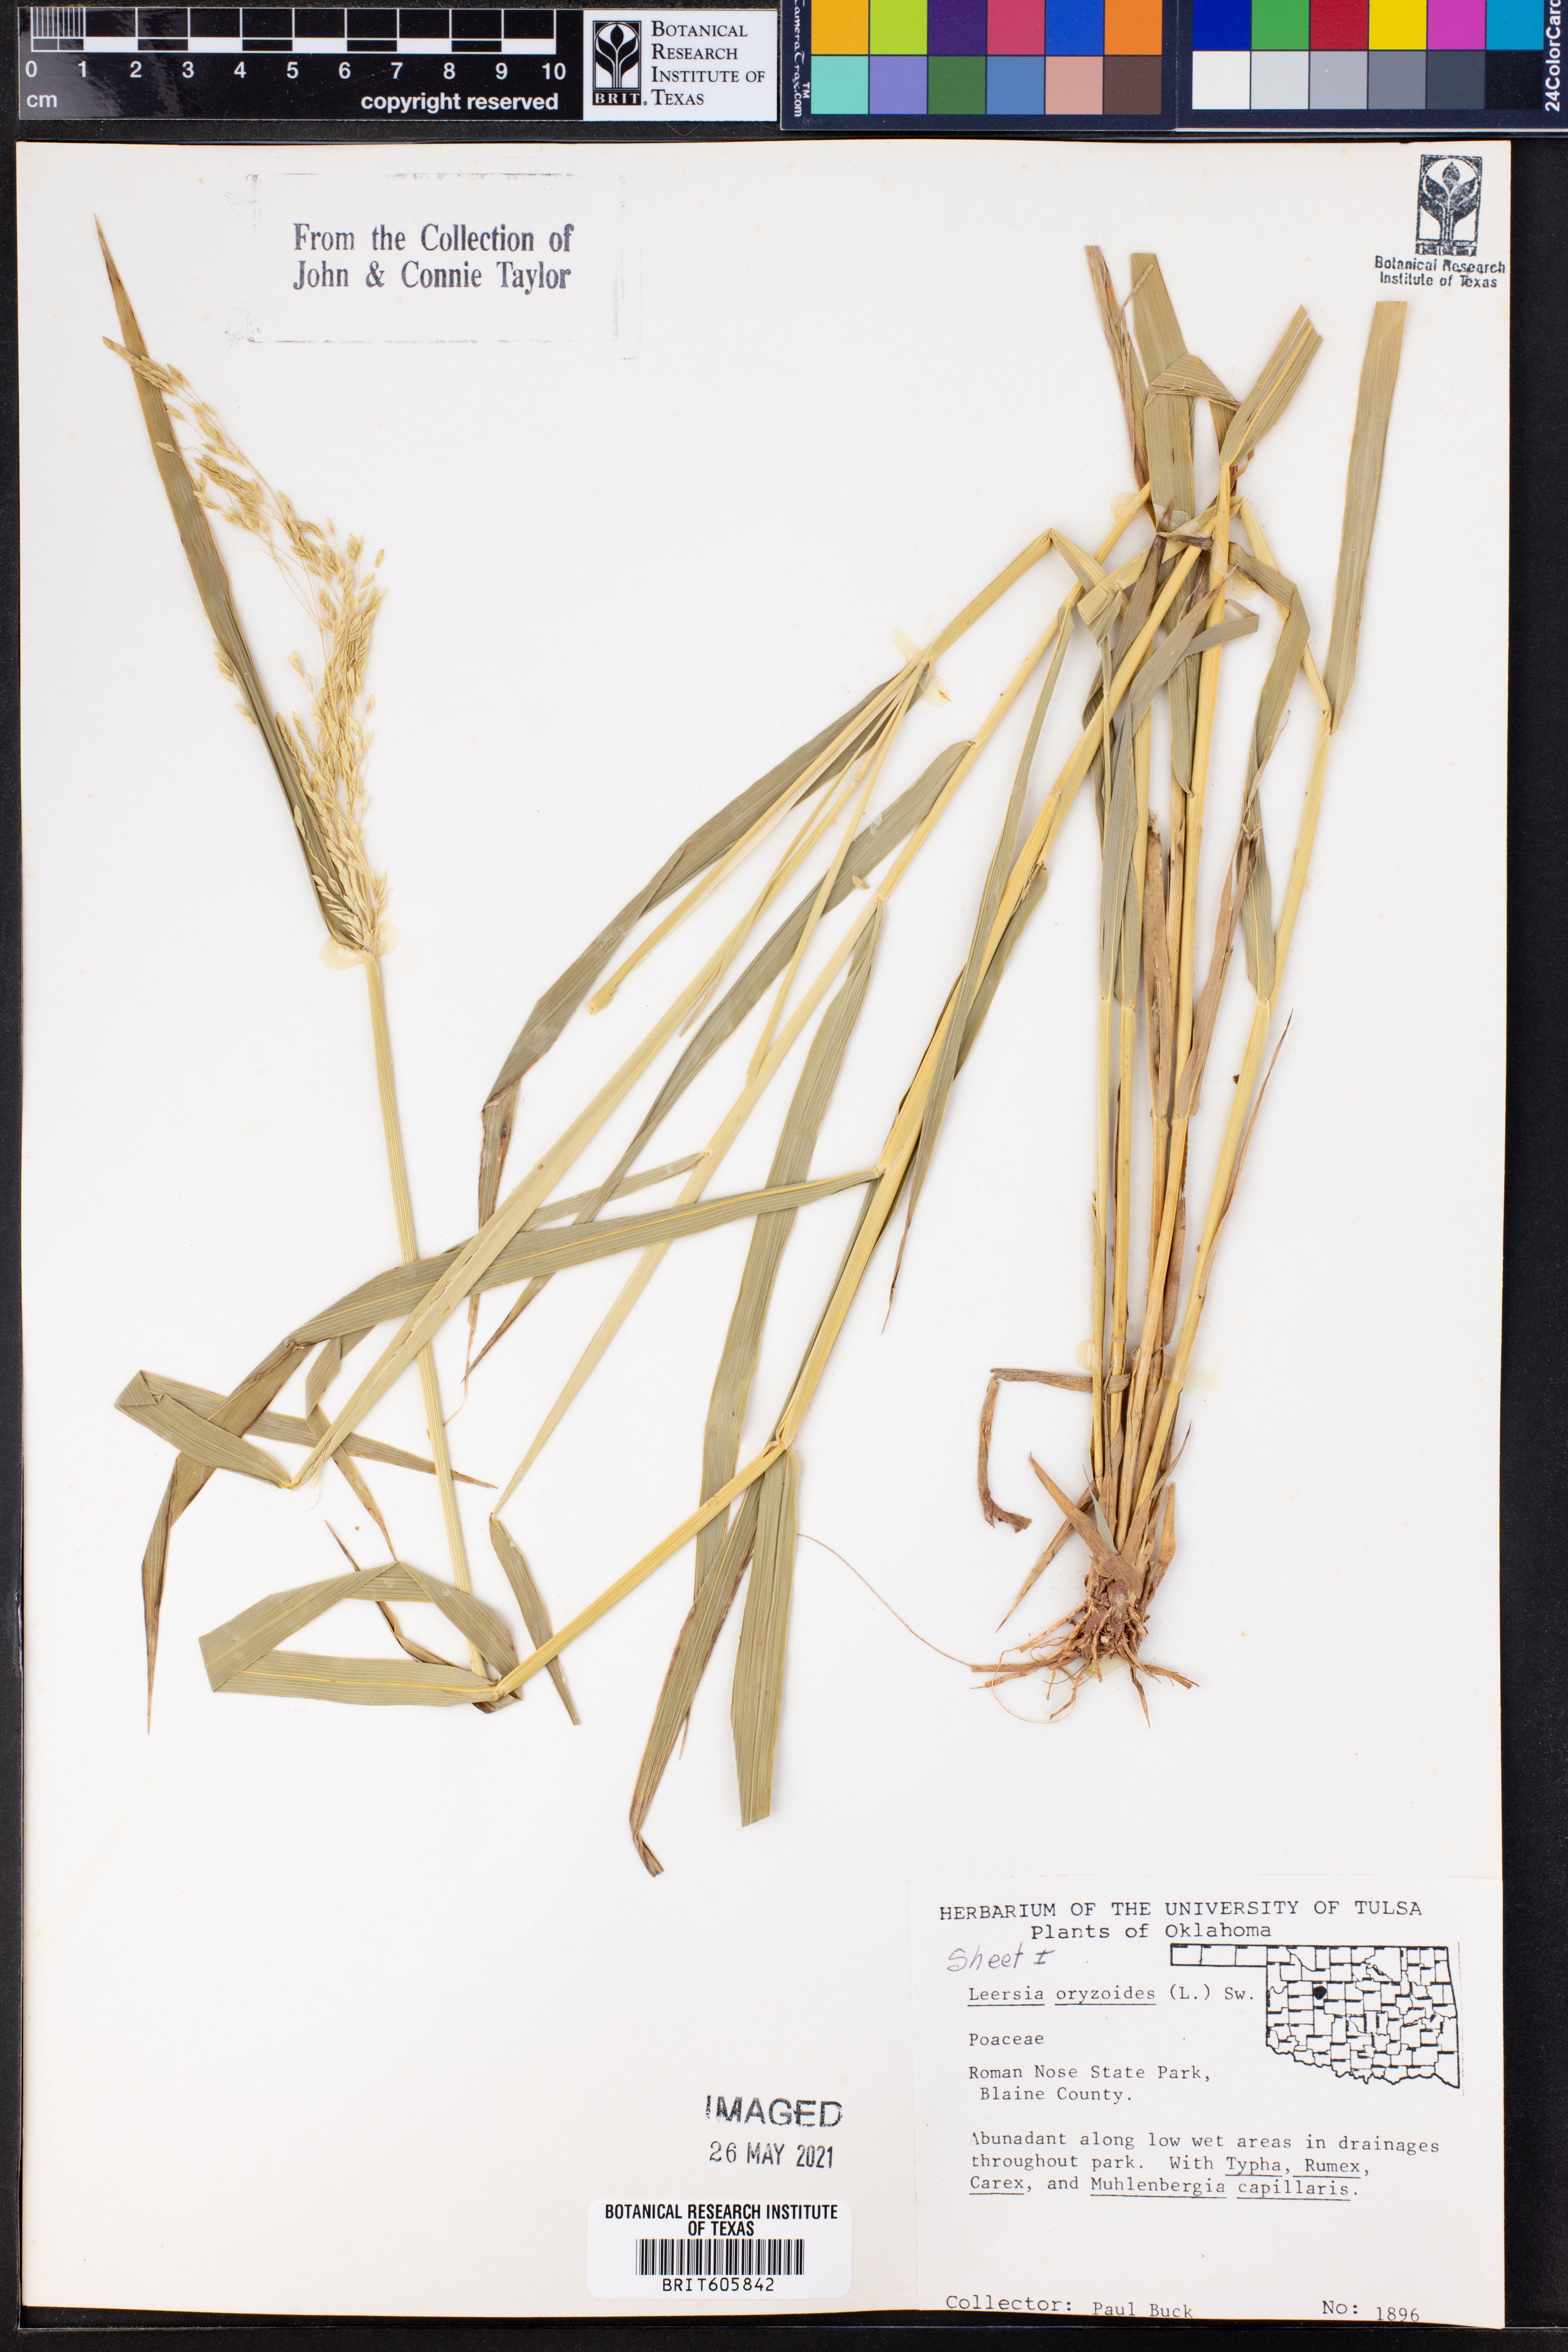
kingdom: Plantae
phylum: Tracheophyta
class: Liliopsida
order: Poales
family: Poaceae
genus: Leersia
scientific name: Leersia oryzoides
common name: Cut-grass
